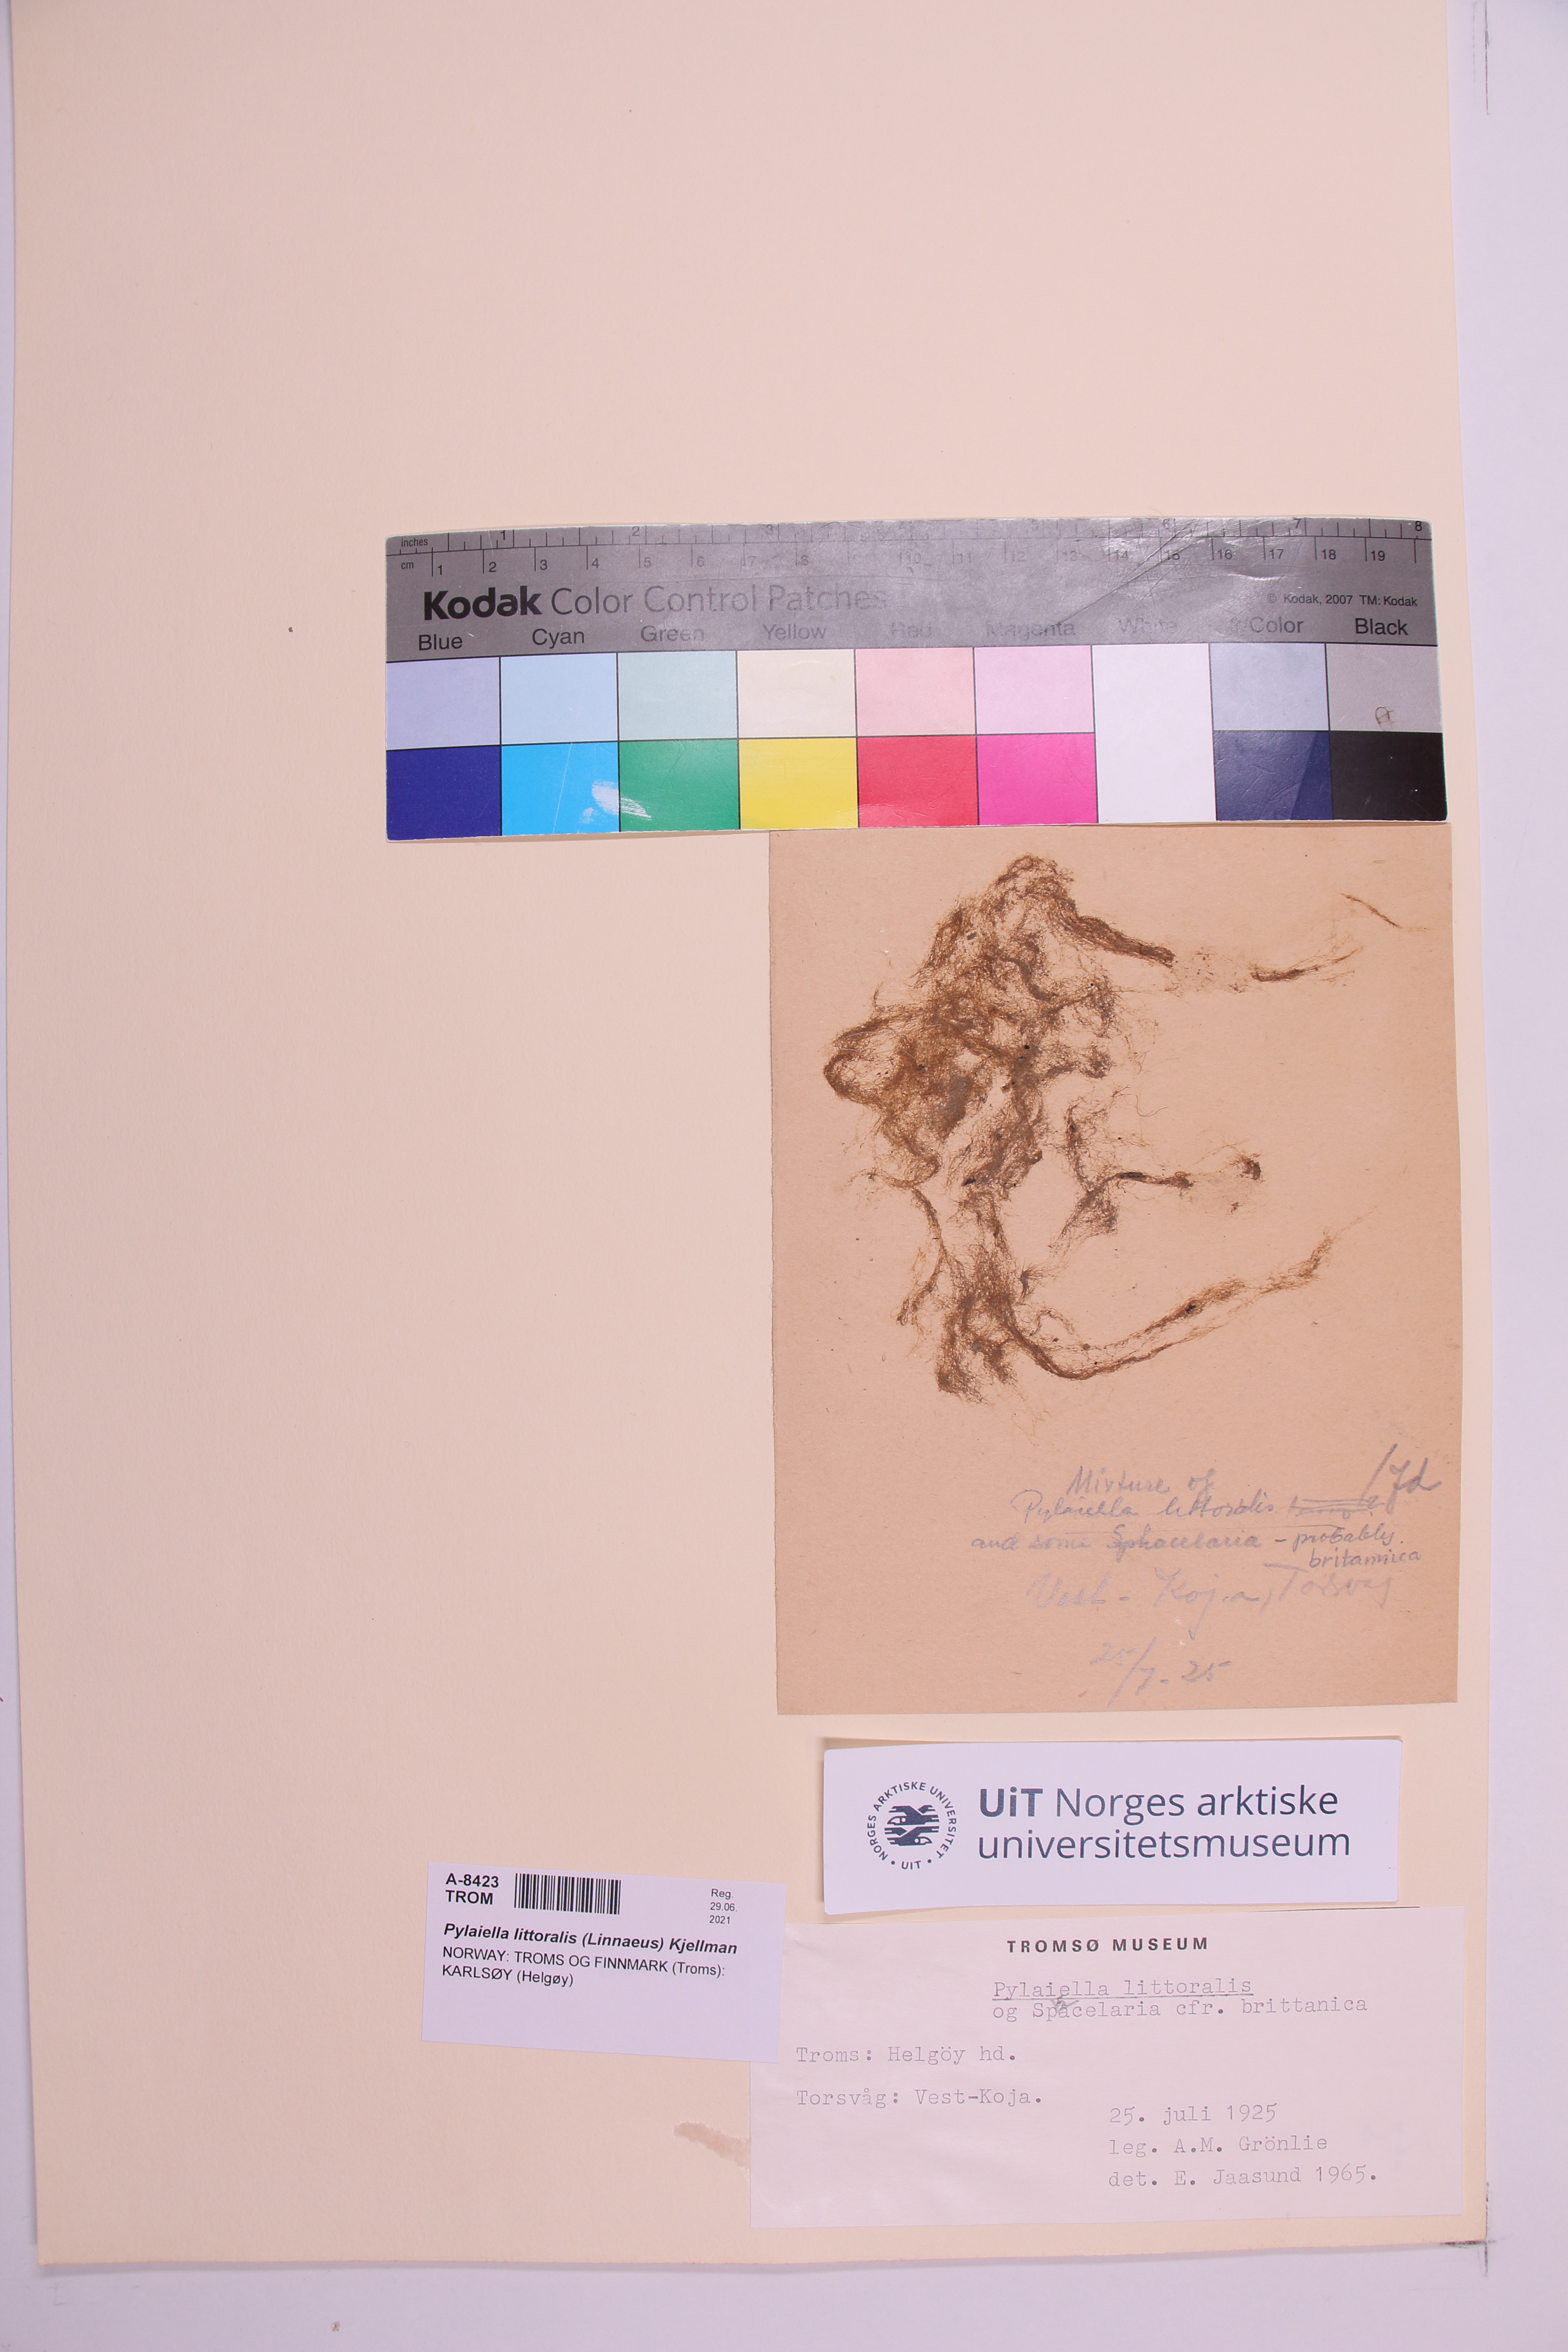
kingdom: Chromista
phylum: Ochrophyta
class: Phaeophyceae
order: Ectocarpales
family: Acinetosporaceae
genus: Pylaiella
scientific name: Pylaiella littoralis
